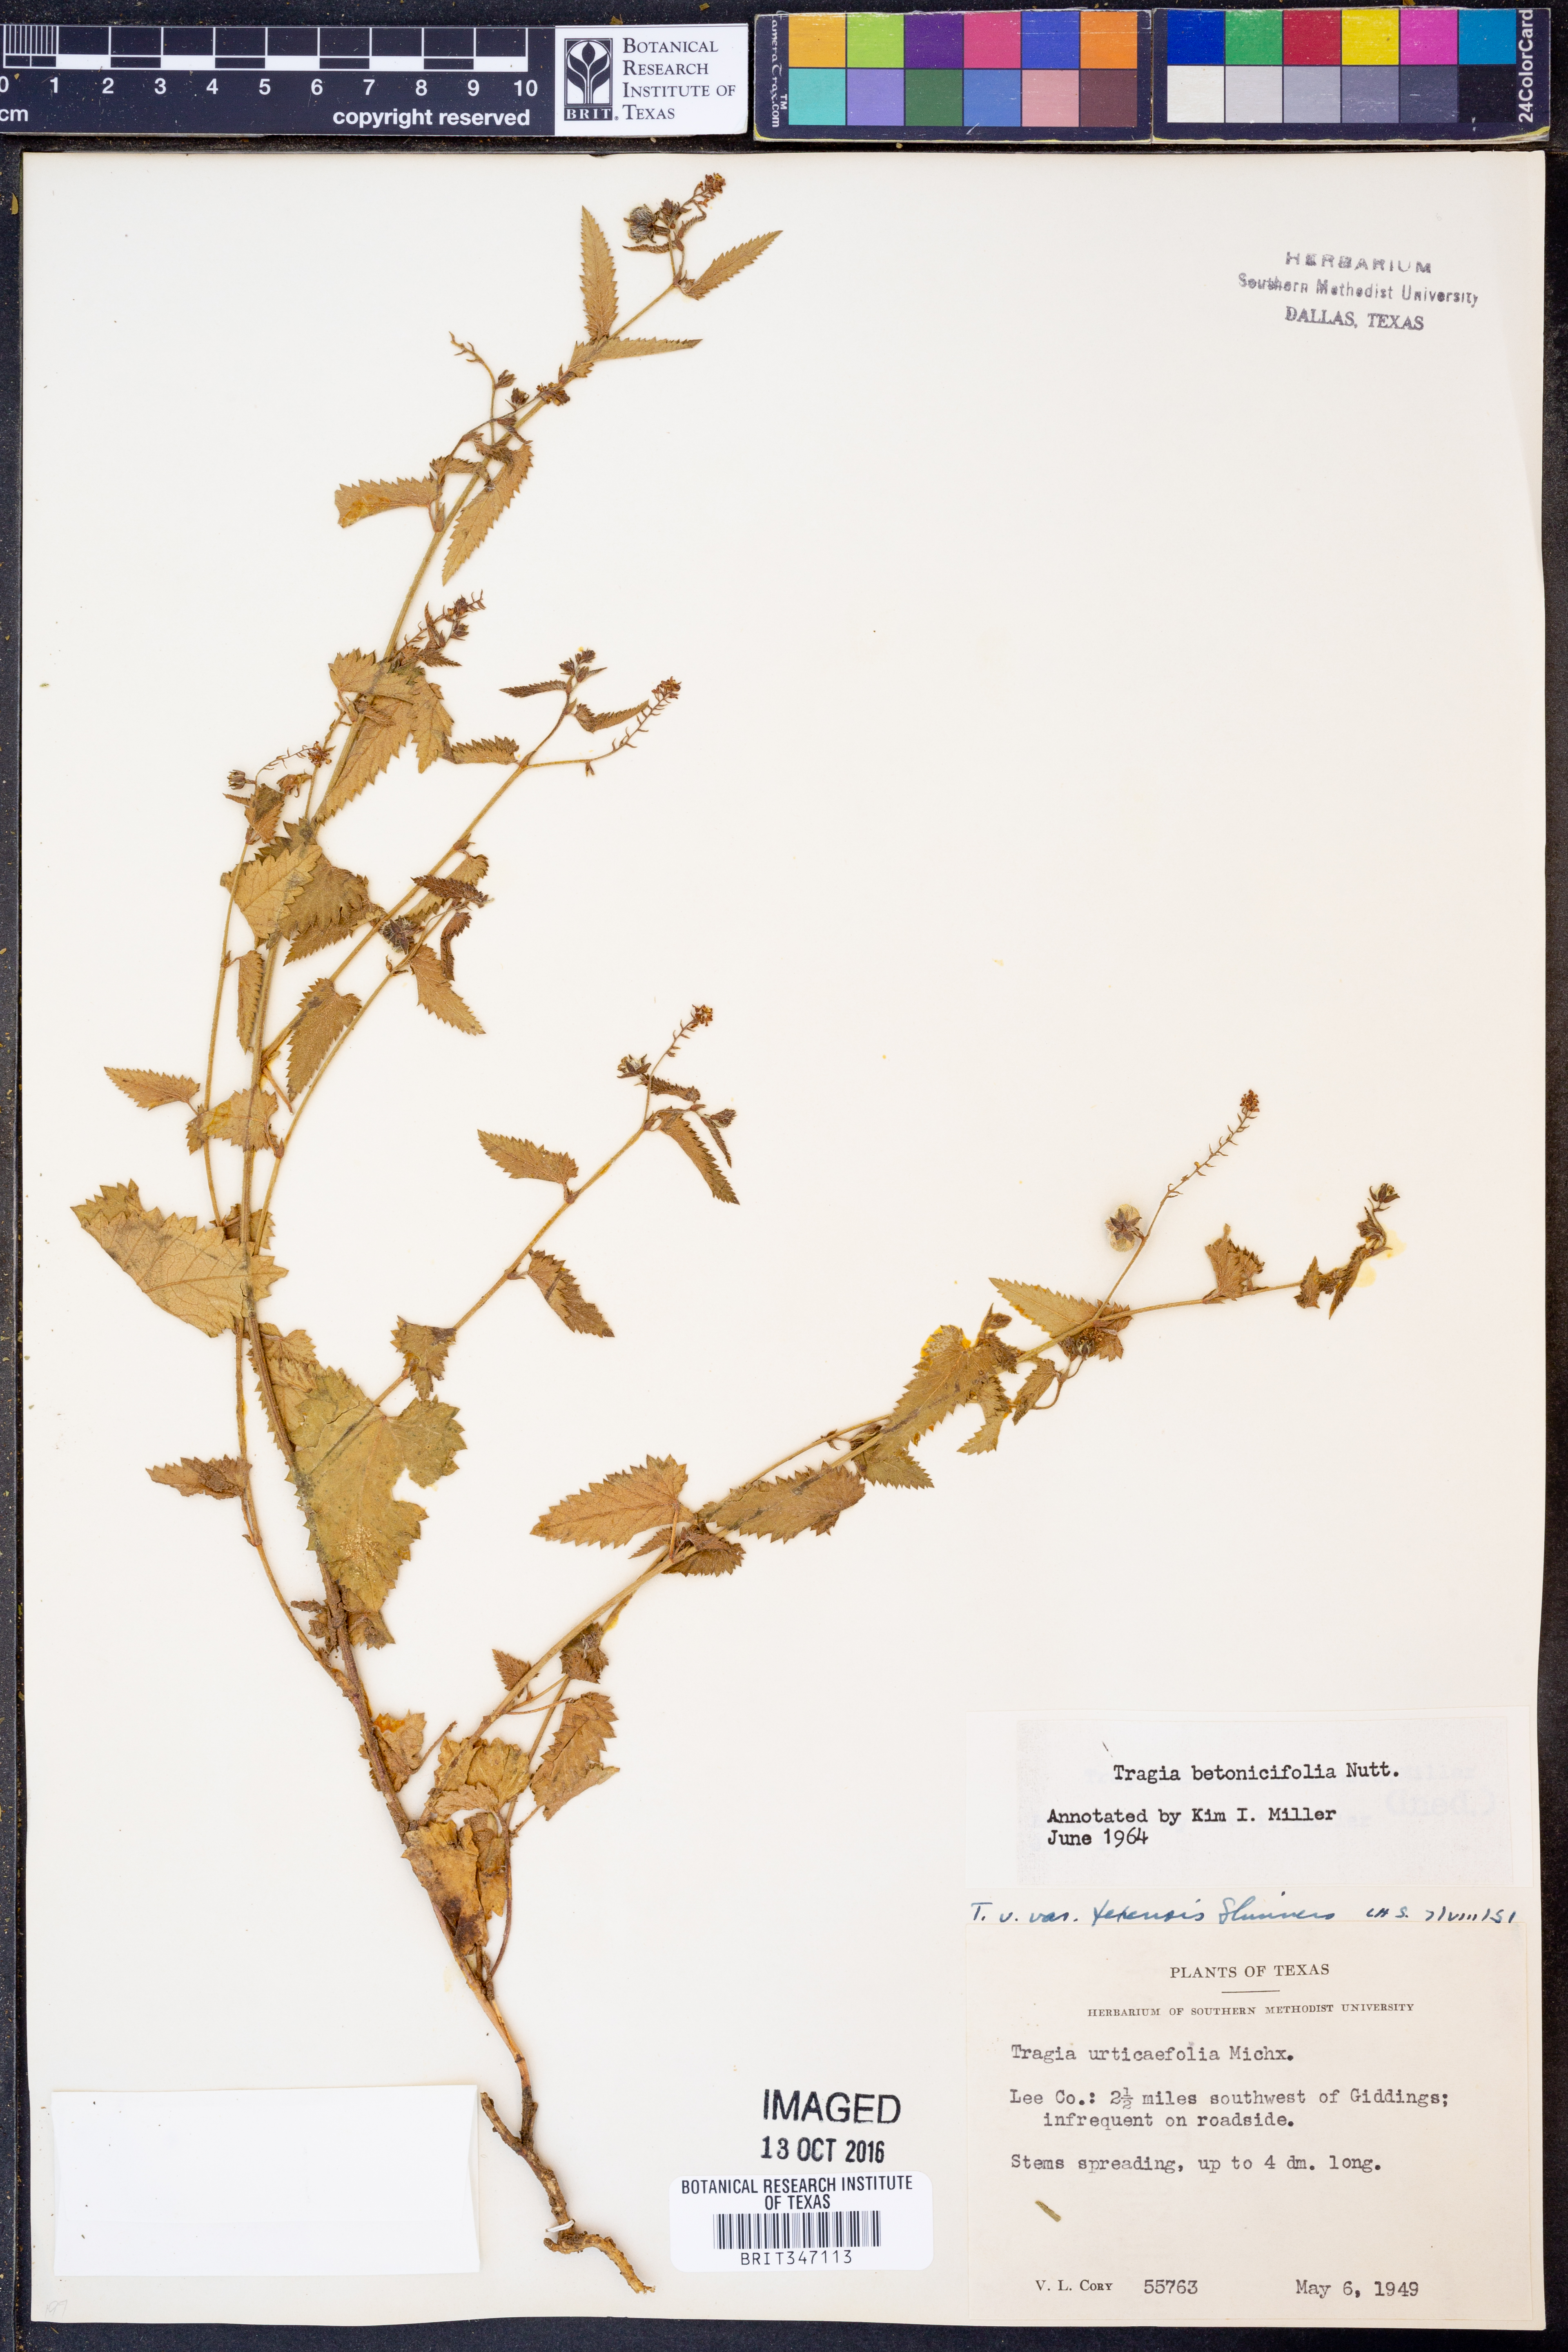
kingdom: Plantae
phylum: Tracheophyta
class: Magnoliopsida
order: Malpighiales
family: Euphorbiaceae
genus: Tragia
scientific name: Tragia betonicifolia
